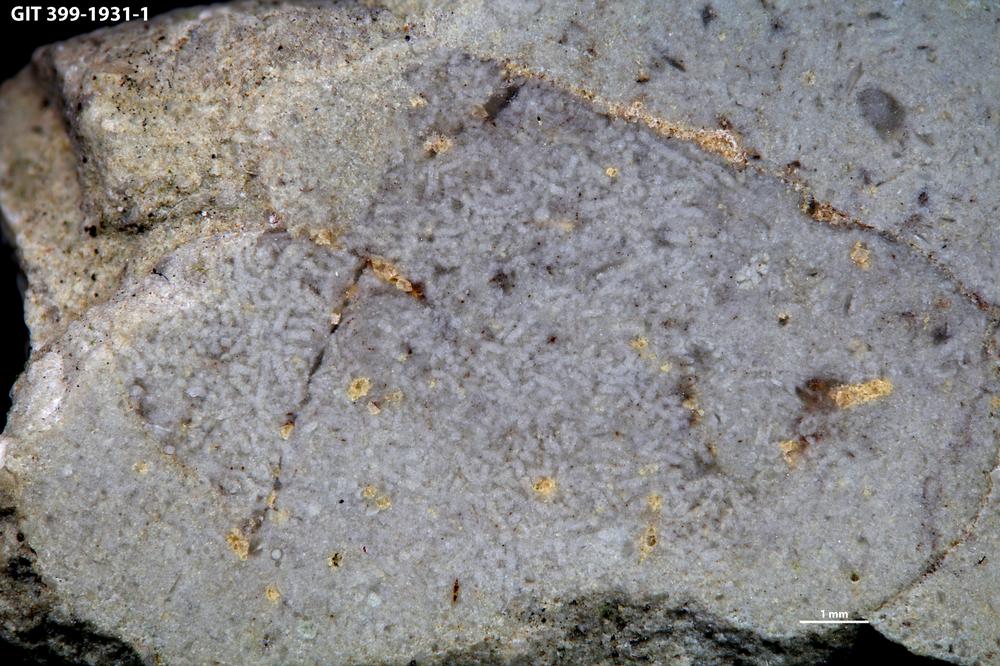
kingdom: Animalia
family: Coprulidae
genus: Coprulus
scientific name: Coprulus
